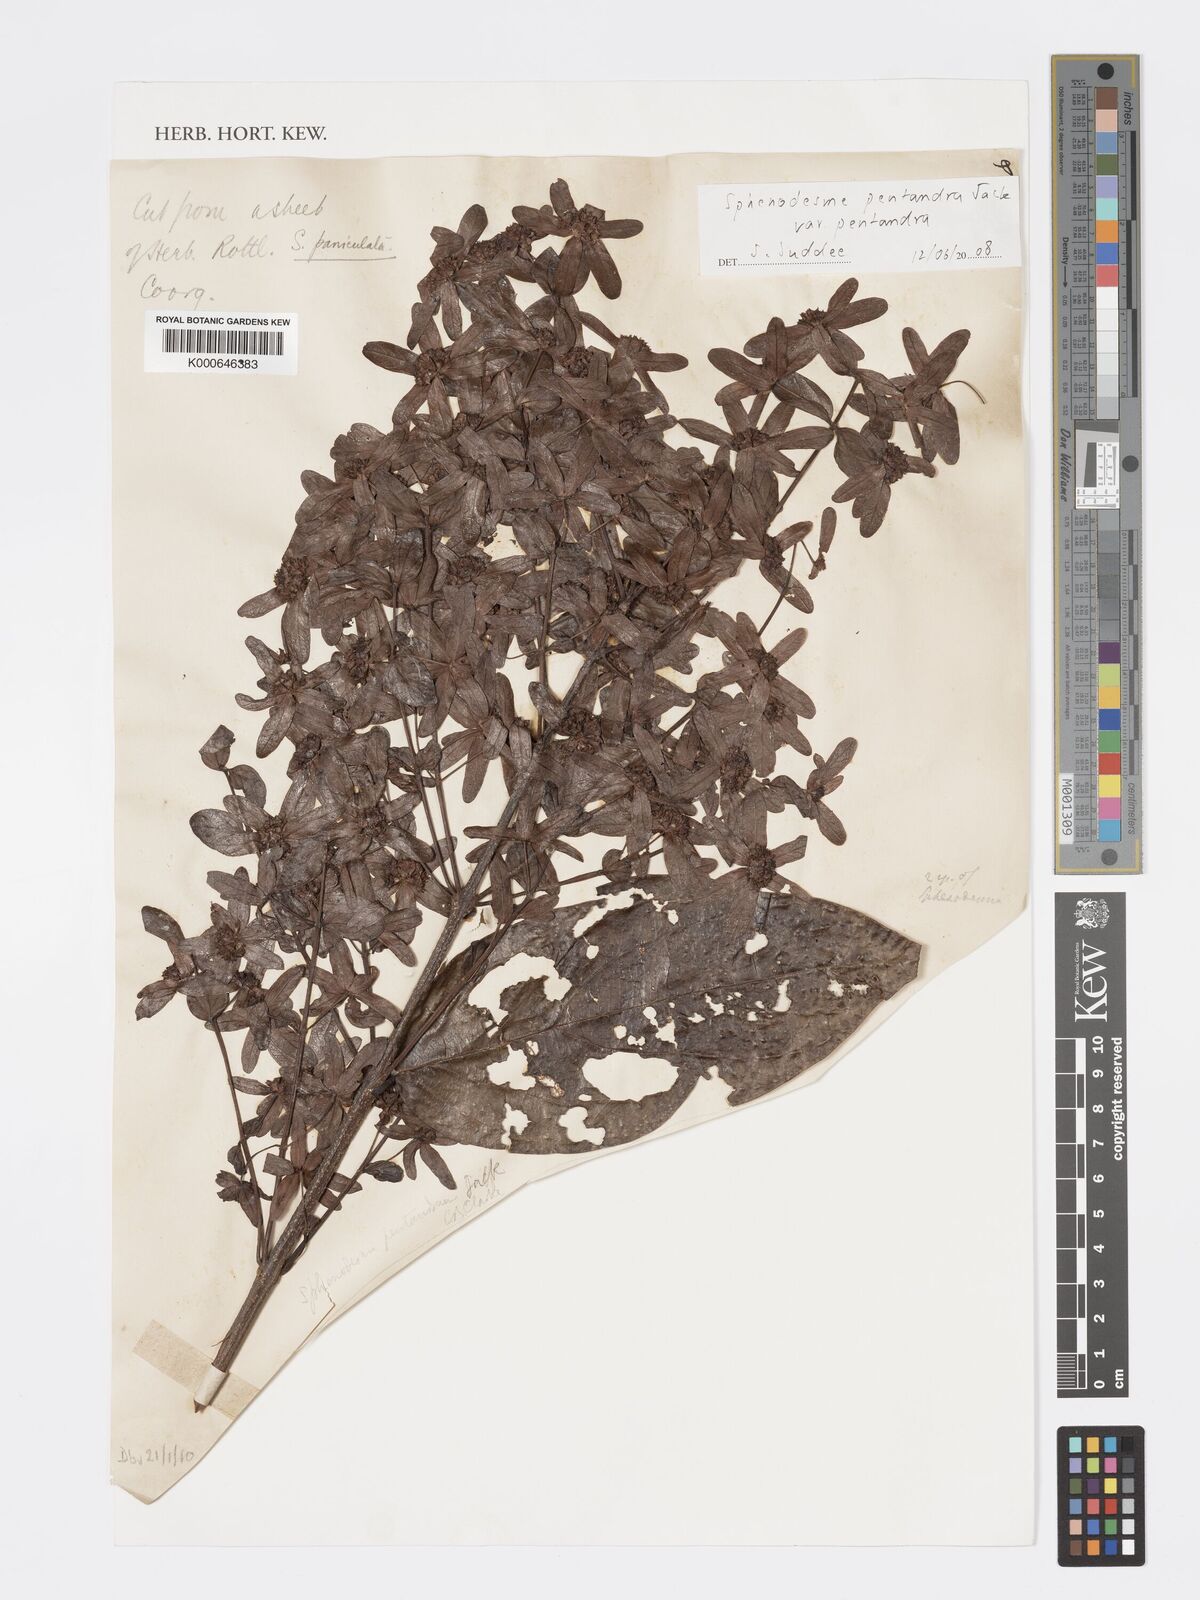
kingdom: Plantae
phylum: Tracheophyta
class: Magnoliopsida
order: Lamiales
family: Lamiaceae
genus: Sphenodesme
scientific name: Sphenodesme pentandra
